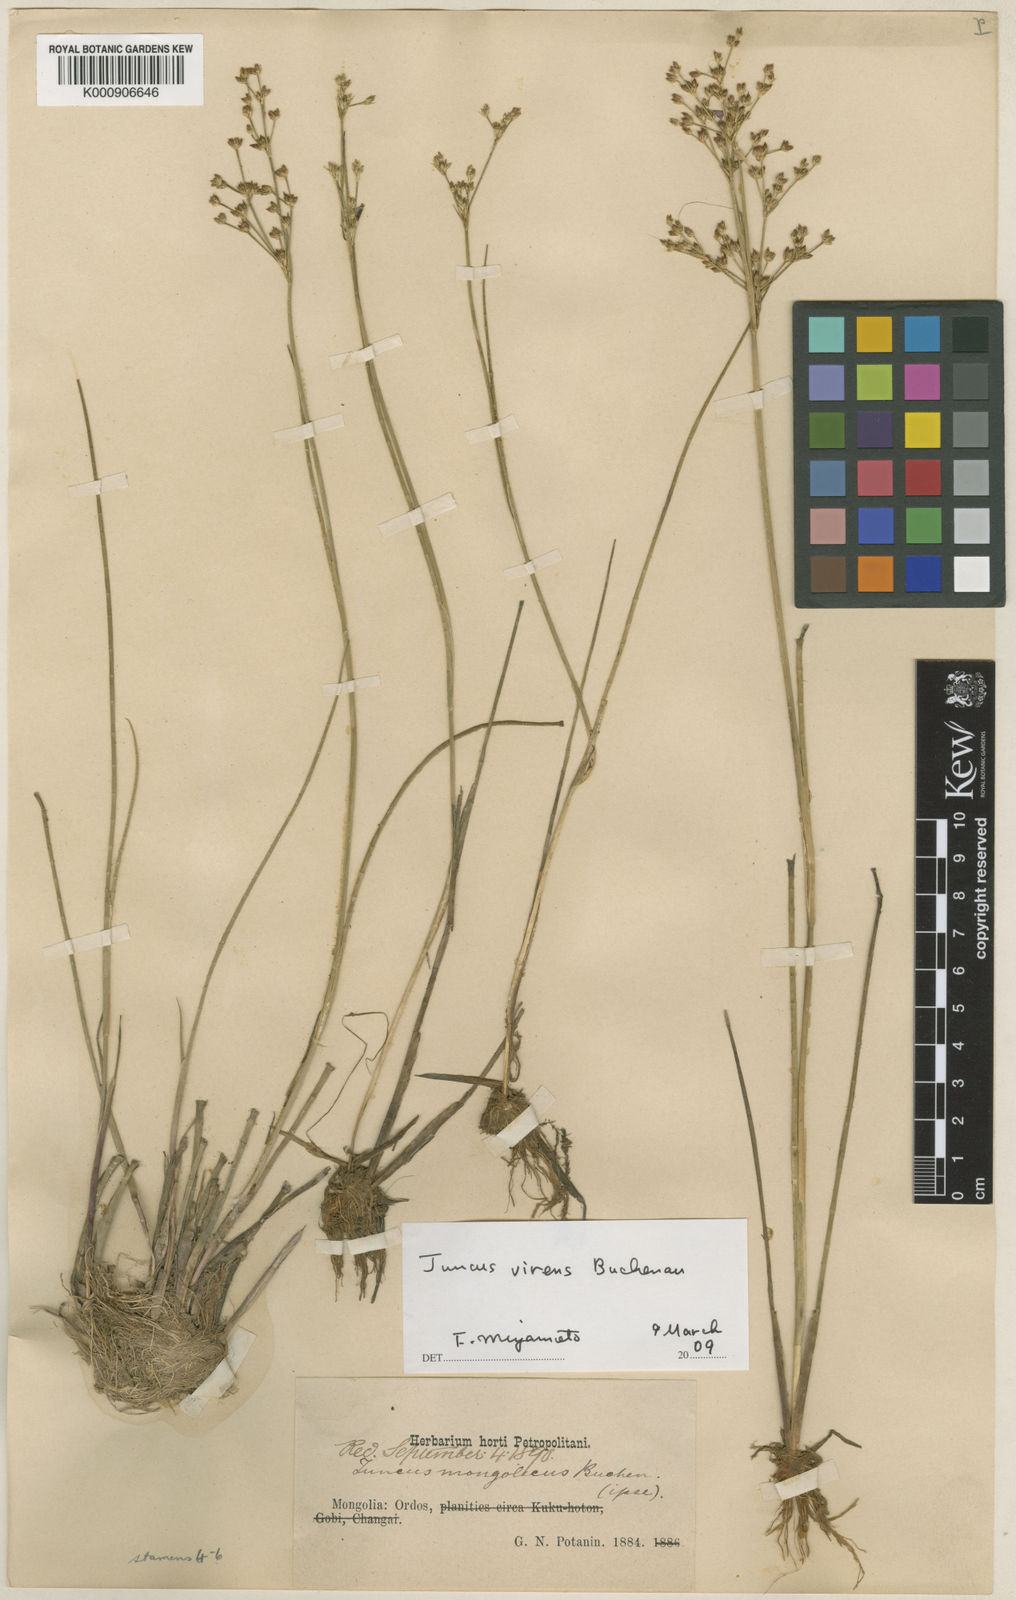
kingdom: Plantae
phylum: Tracheophyta
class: Liliopsida
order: Poales
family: Juncaceae
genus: Juncus
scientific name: Juncus
